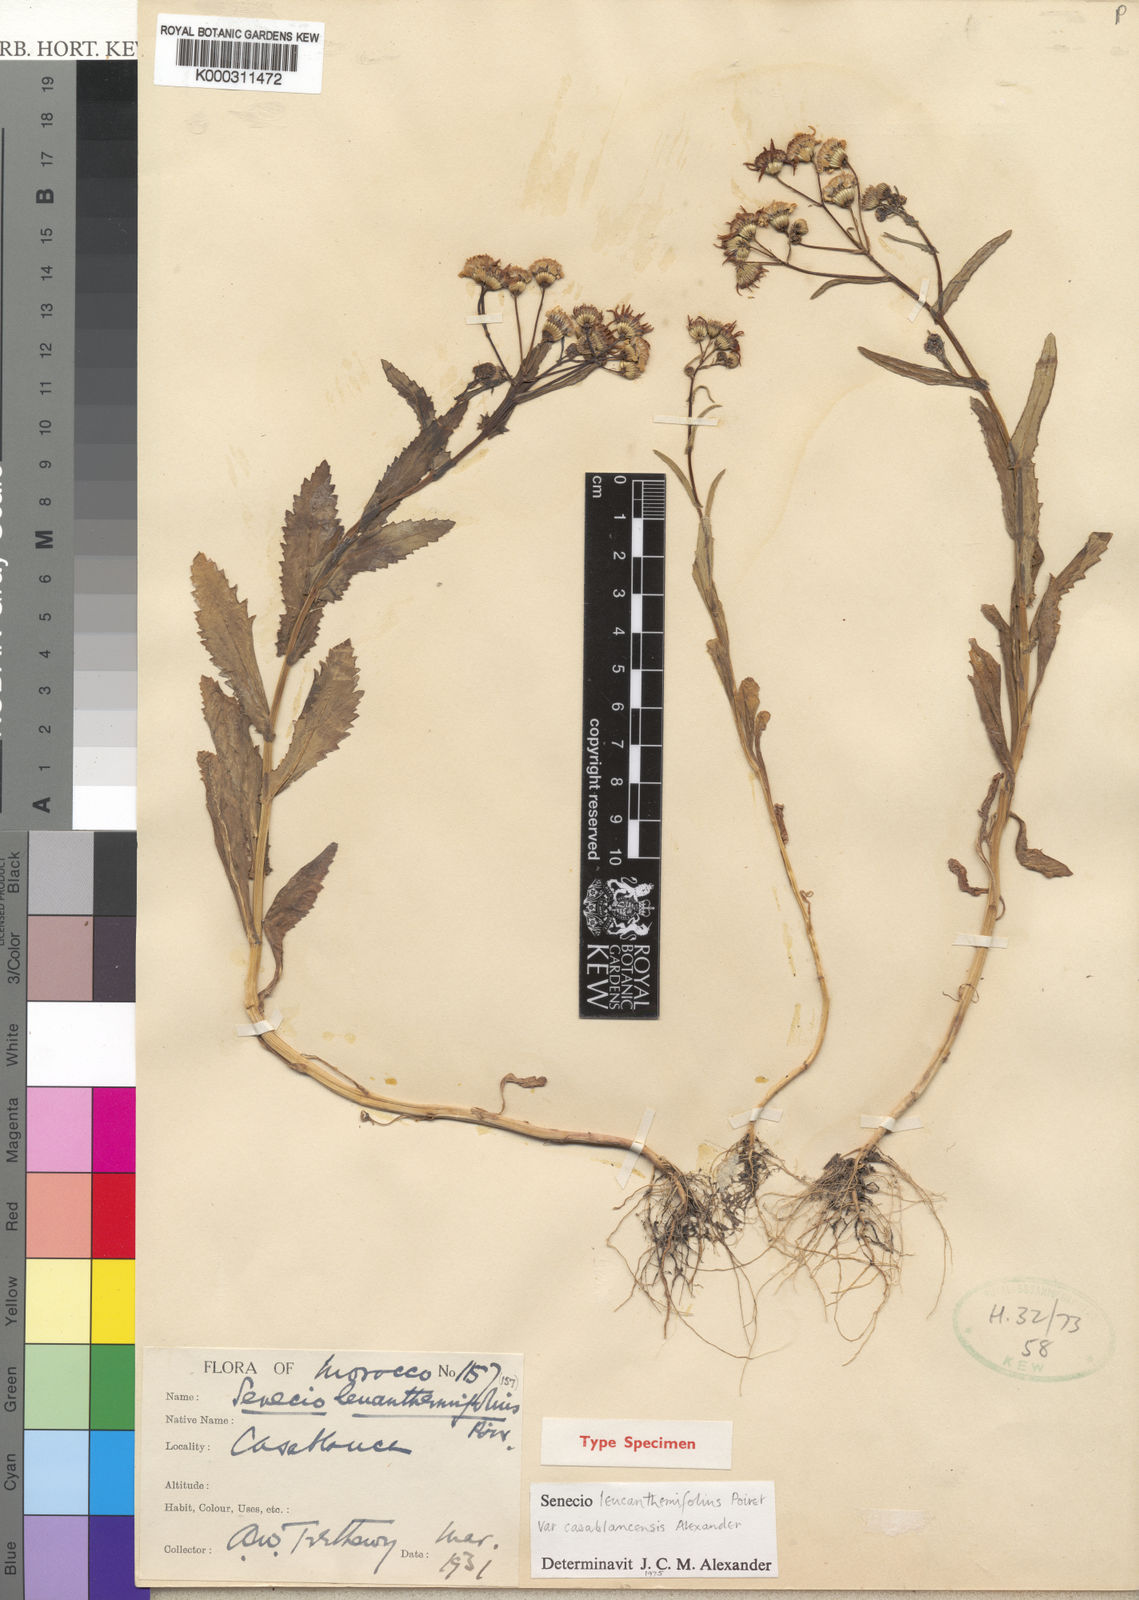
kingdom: Plantae
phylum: Tracheophyta
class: Magnoliopsida
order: Asterales
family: Asteraceae
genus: Senecio
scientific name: Senecio leucanthemifolius
